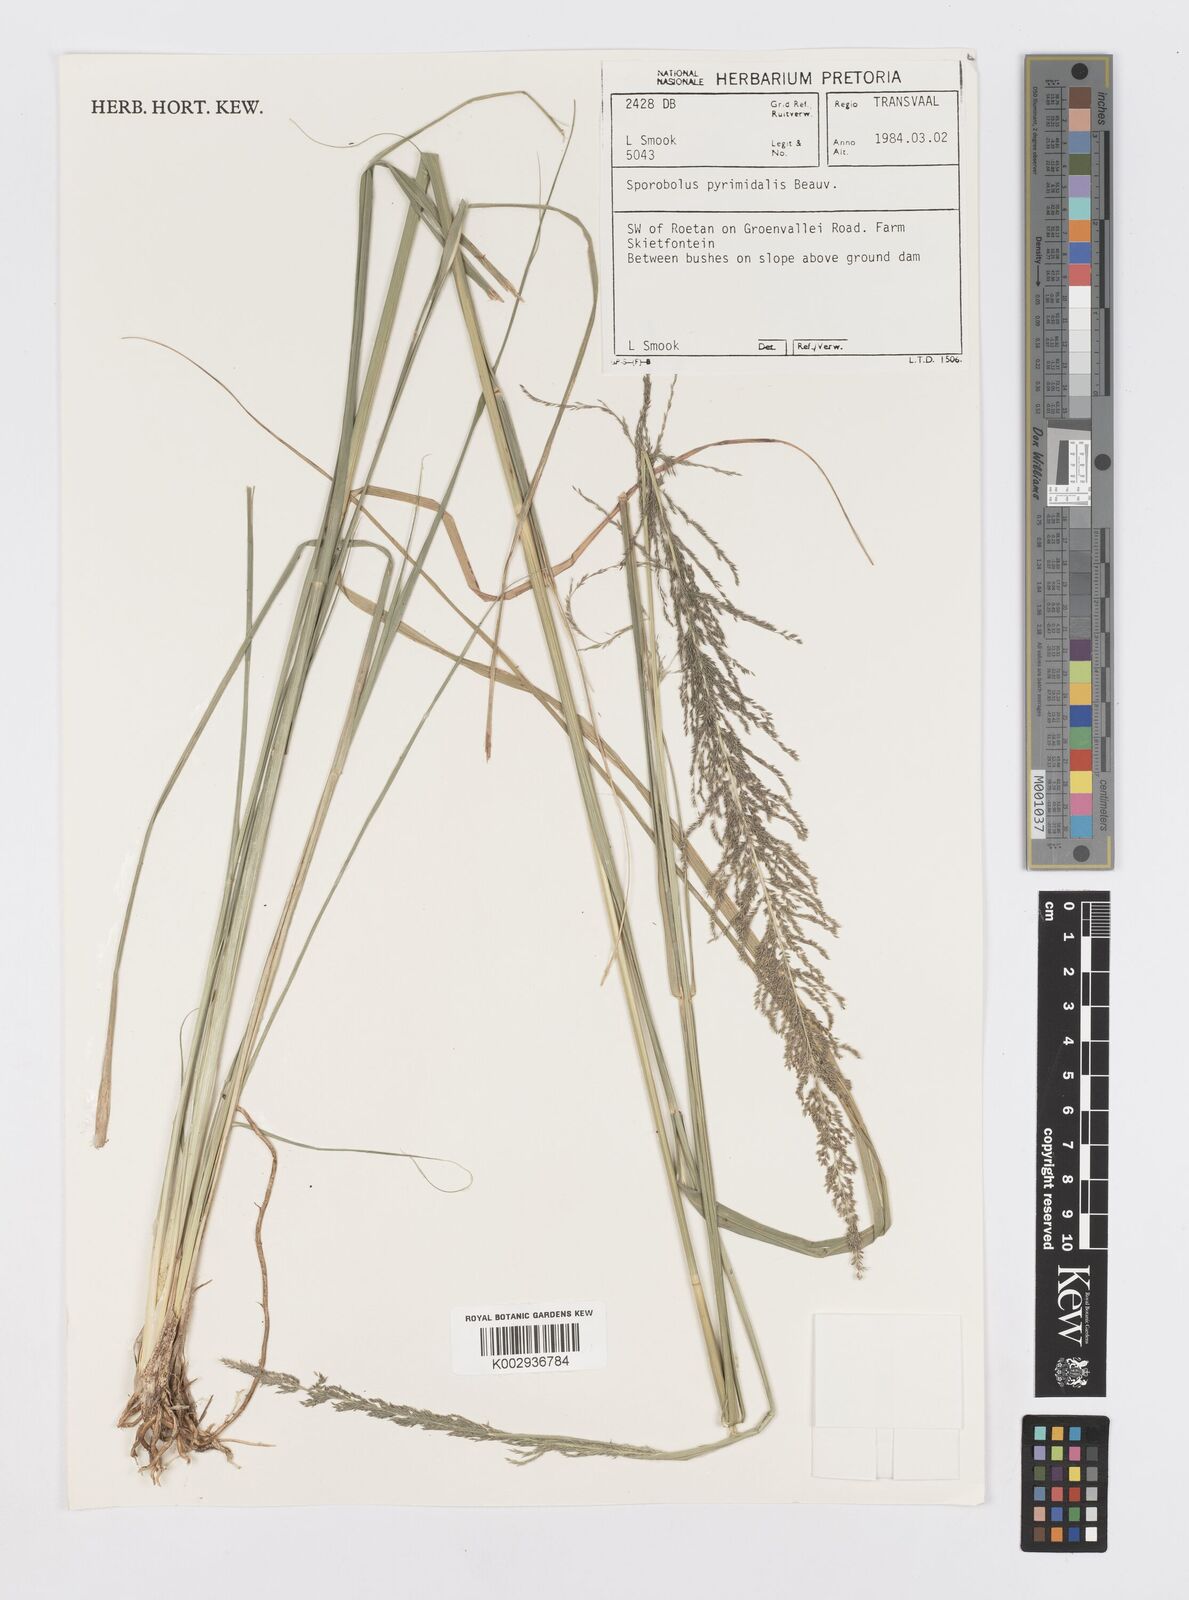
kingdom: Plantae
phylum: Tracheophyta
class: Liliopsida
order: Poales
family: Poaceae
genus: Sporobolus
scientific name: Sporobolus pyramidalis
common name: West indian dropseed
